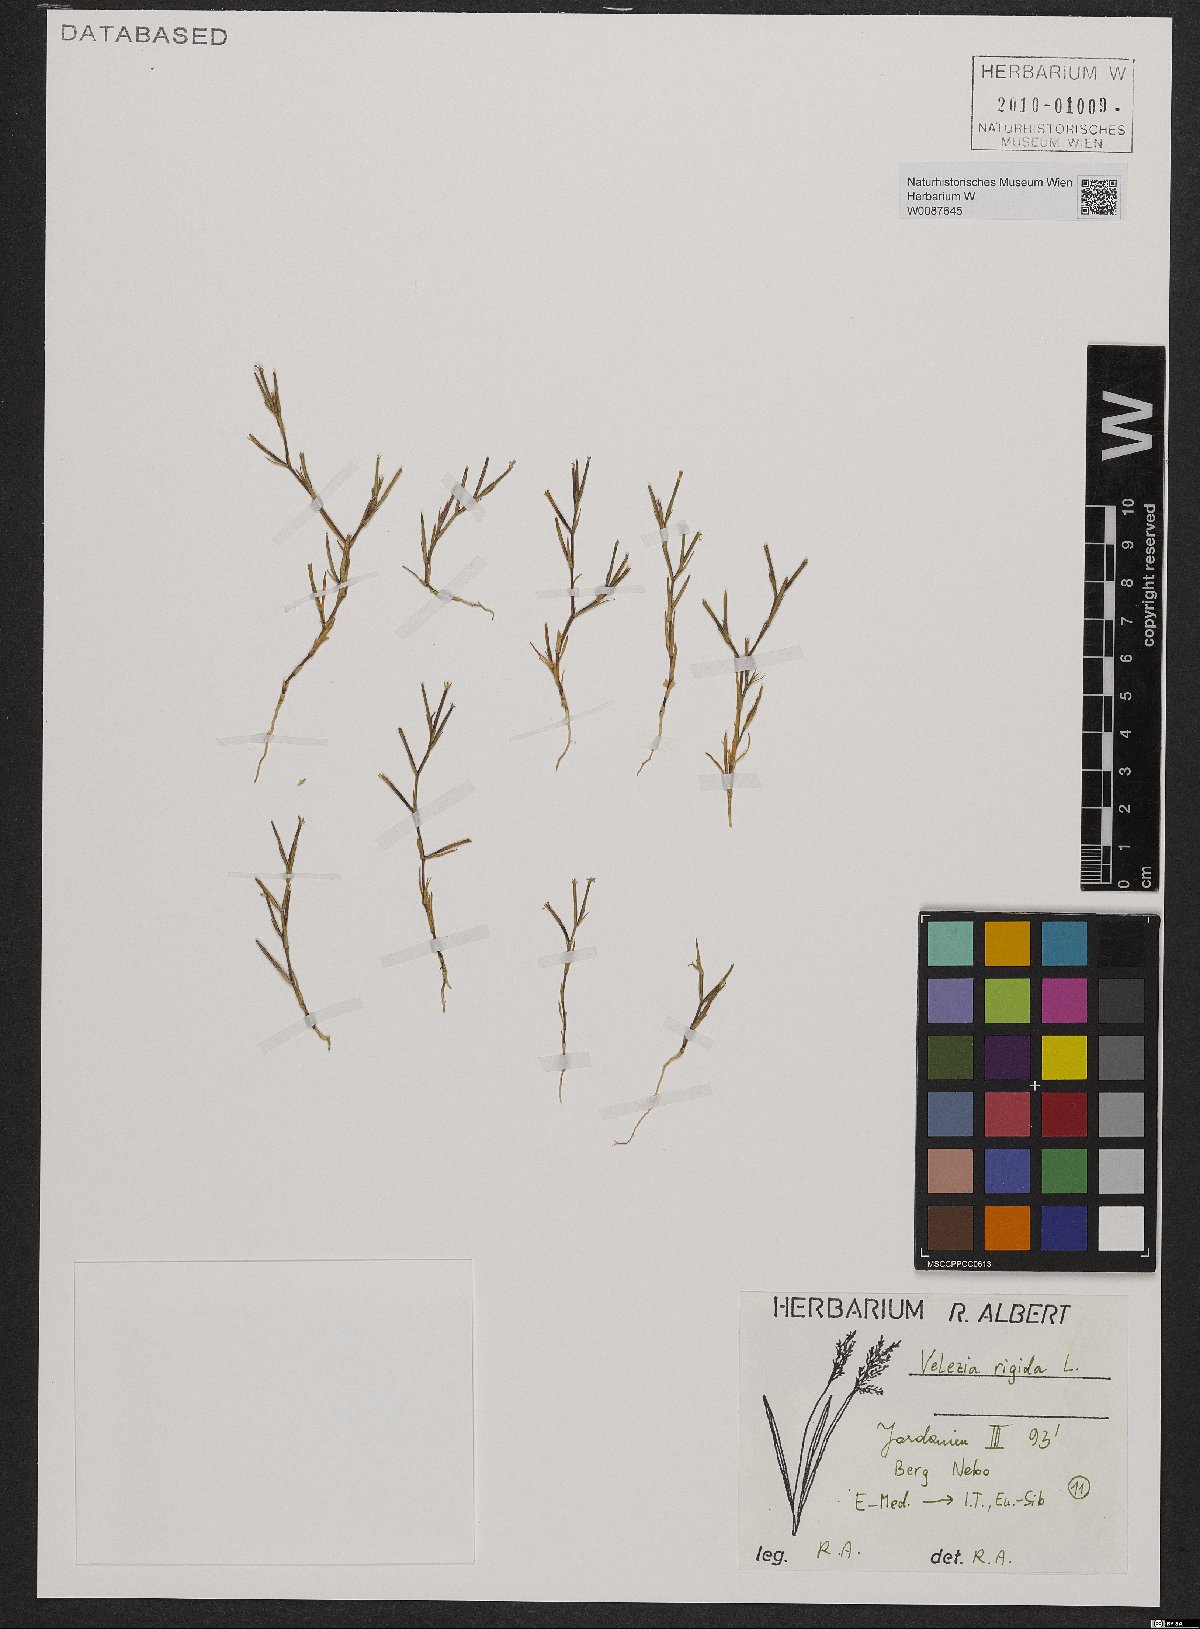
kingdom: Plantae
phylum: Tracheophyta
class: Magnoliopsida
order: Caryophyllales
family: Caryophyllaceae
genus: Dianthus
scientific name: Dianthus nudiflorus
